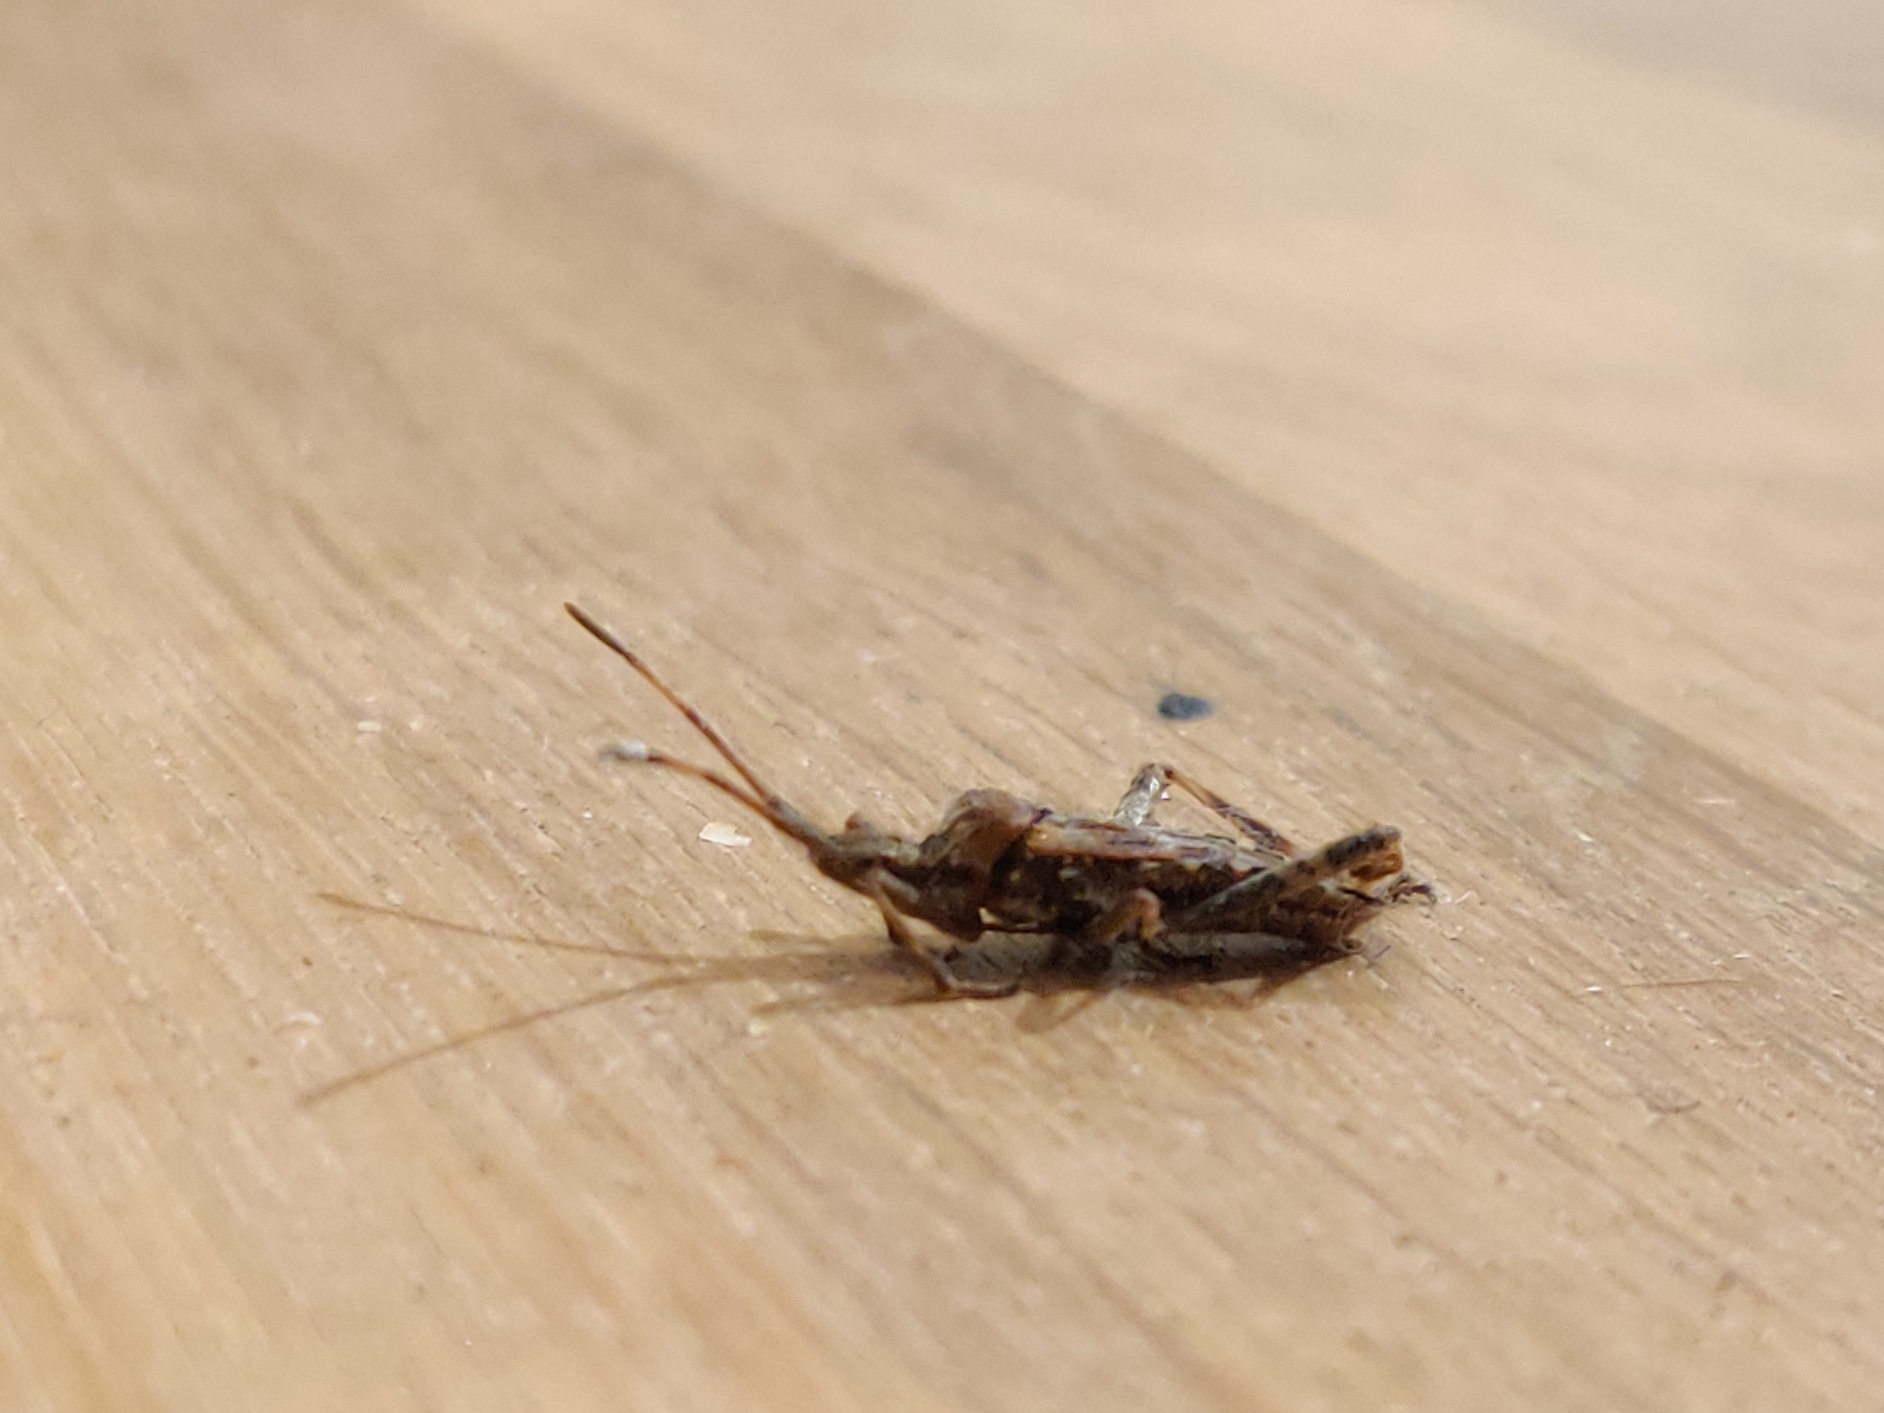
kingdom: Animalia
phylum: Arthropoda
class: Insecta
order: Hemiptera
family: Coreidae
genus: Leptoglossus
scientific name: Leptoglossus occidentalis
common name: Amerikansk fyrretæge
